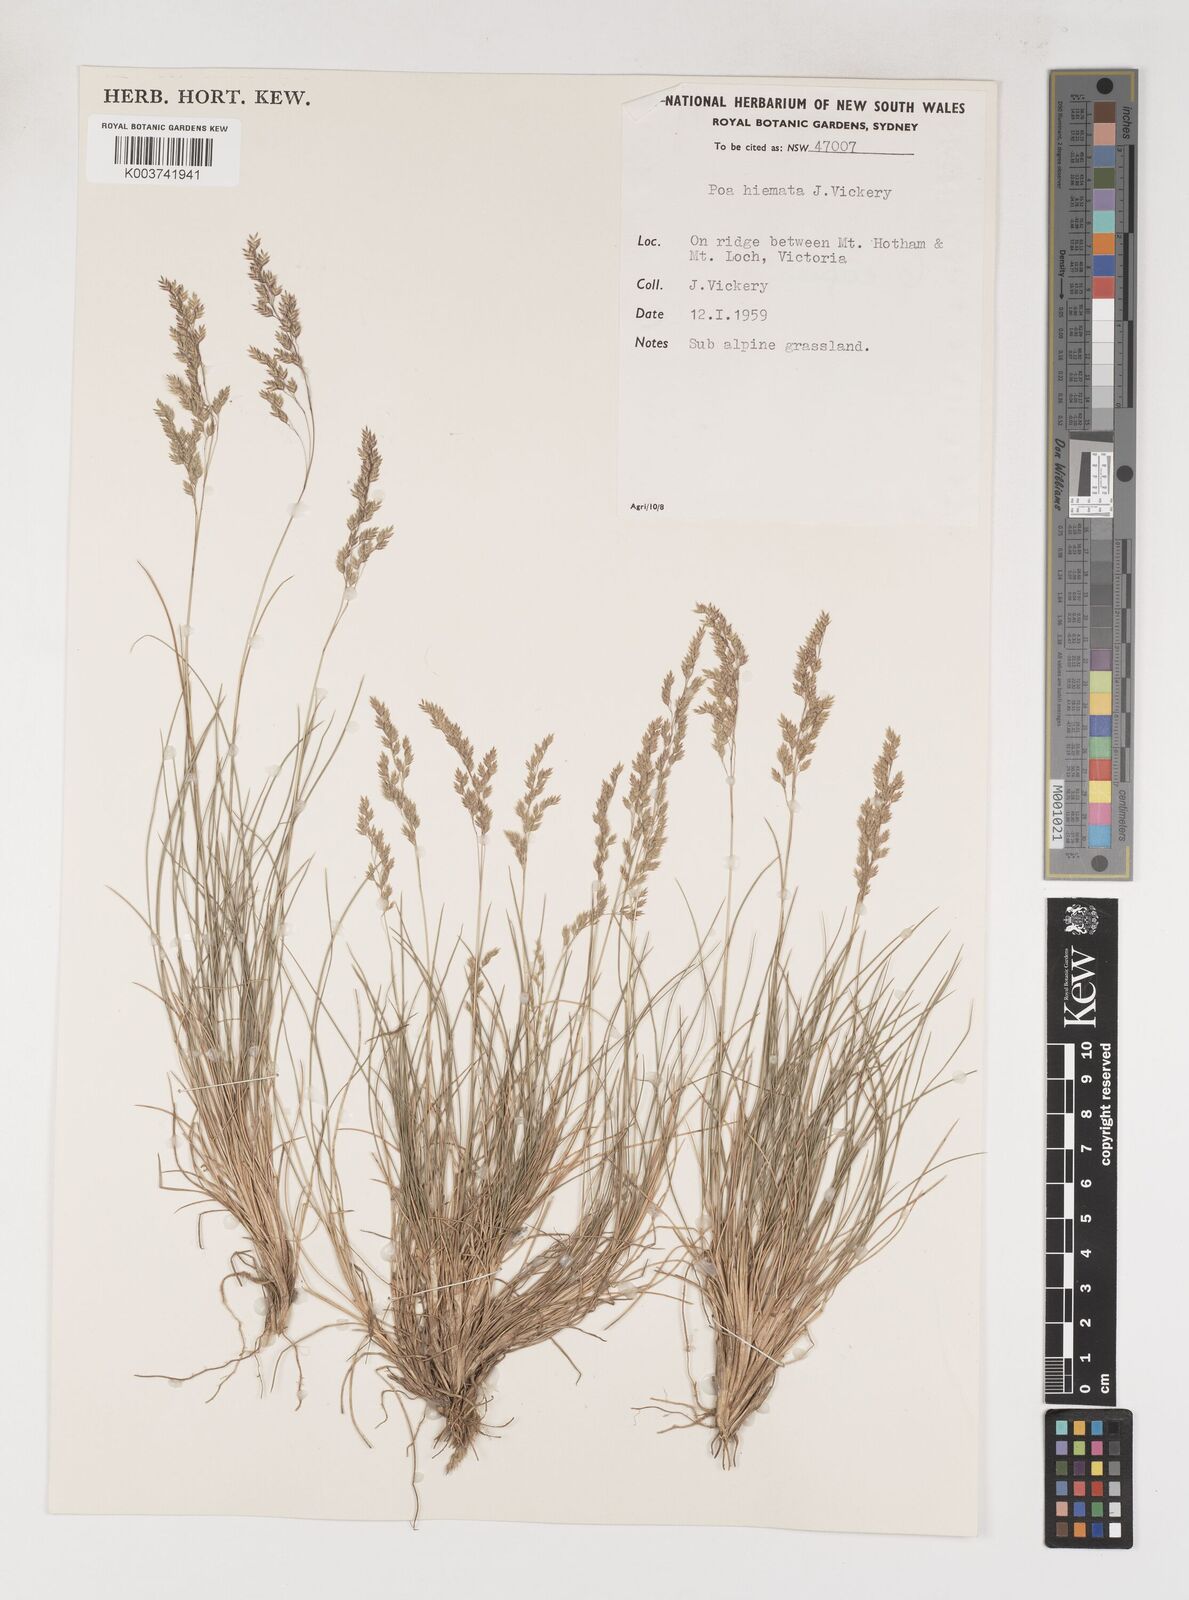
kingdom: Plantae
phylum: Tracheophyta
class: Liliopsida
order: Poales
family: Poaceae
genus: Poa
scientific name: Poa hiemata
